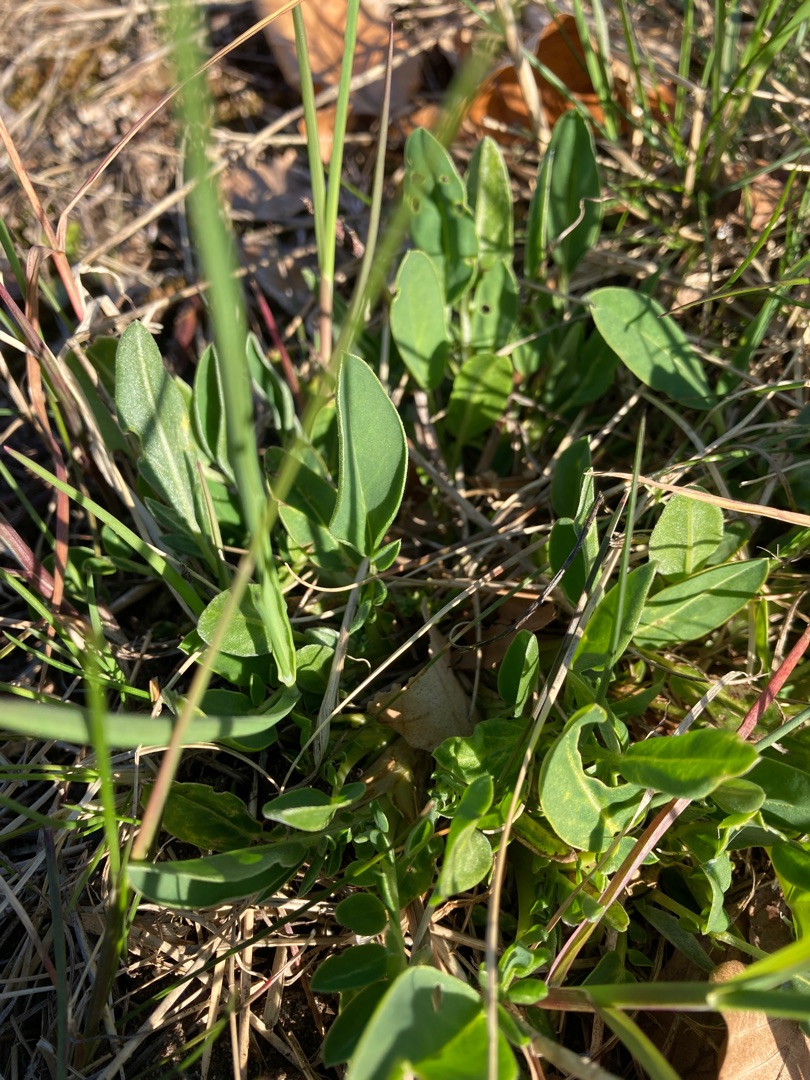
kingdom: Plantae
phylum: Tracheophyta
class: Magnoliopsida
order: Fabales
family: Fabaceae
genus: Anthyllis
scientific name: Anthyllis vulneraria
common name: Rundbælg
